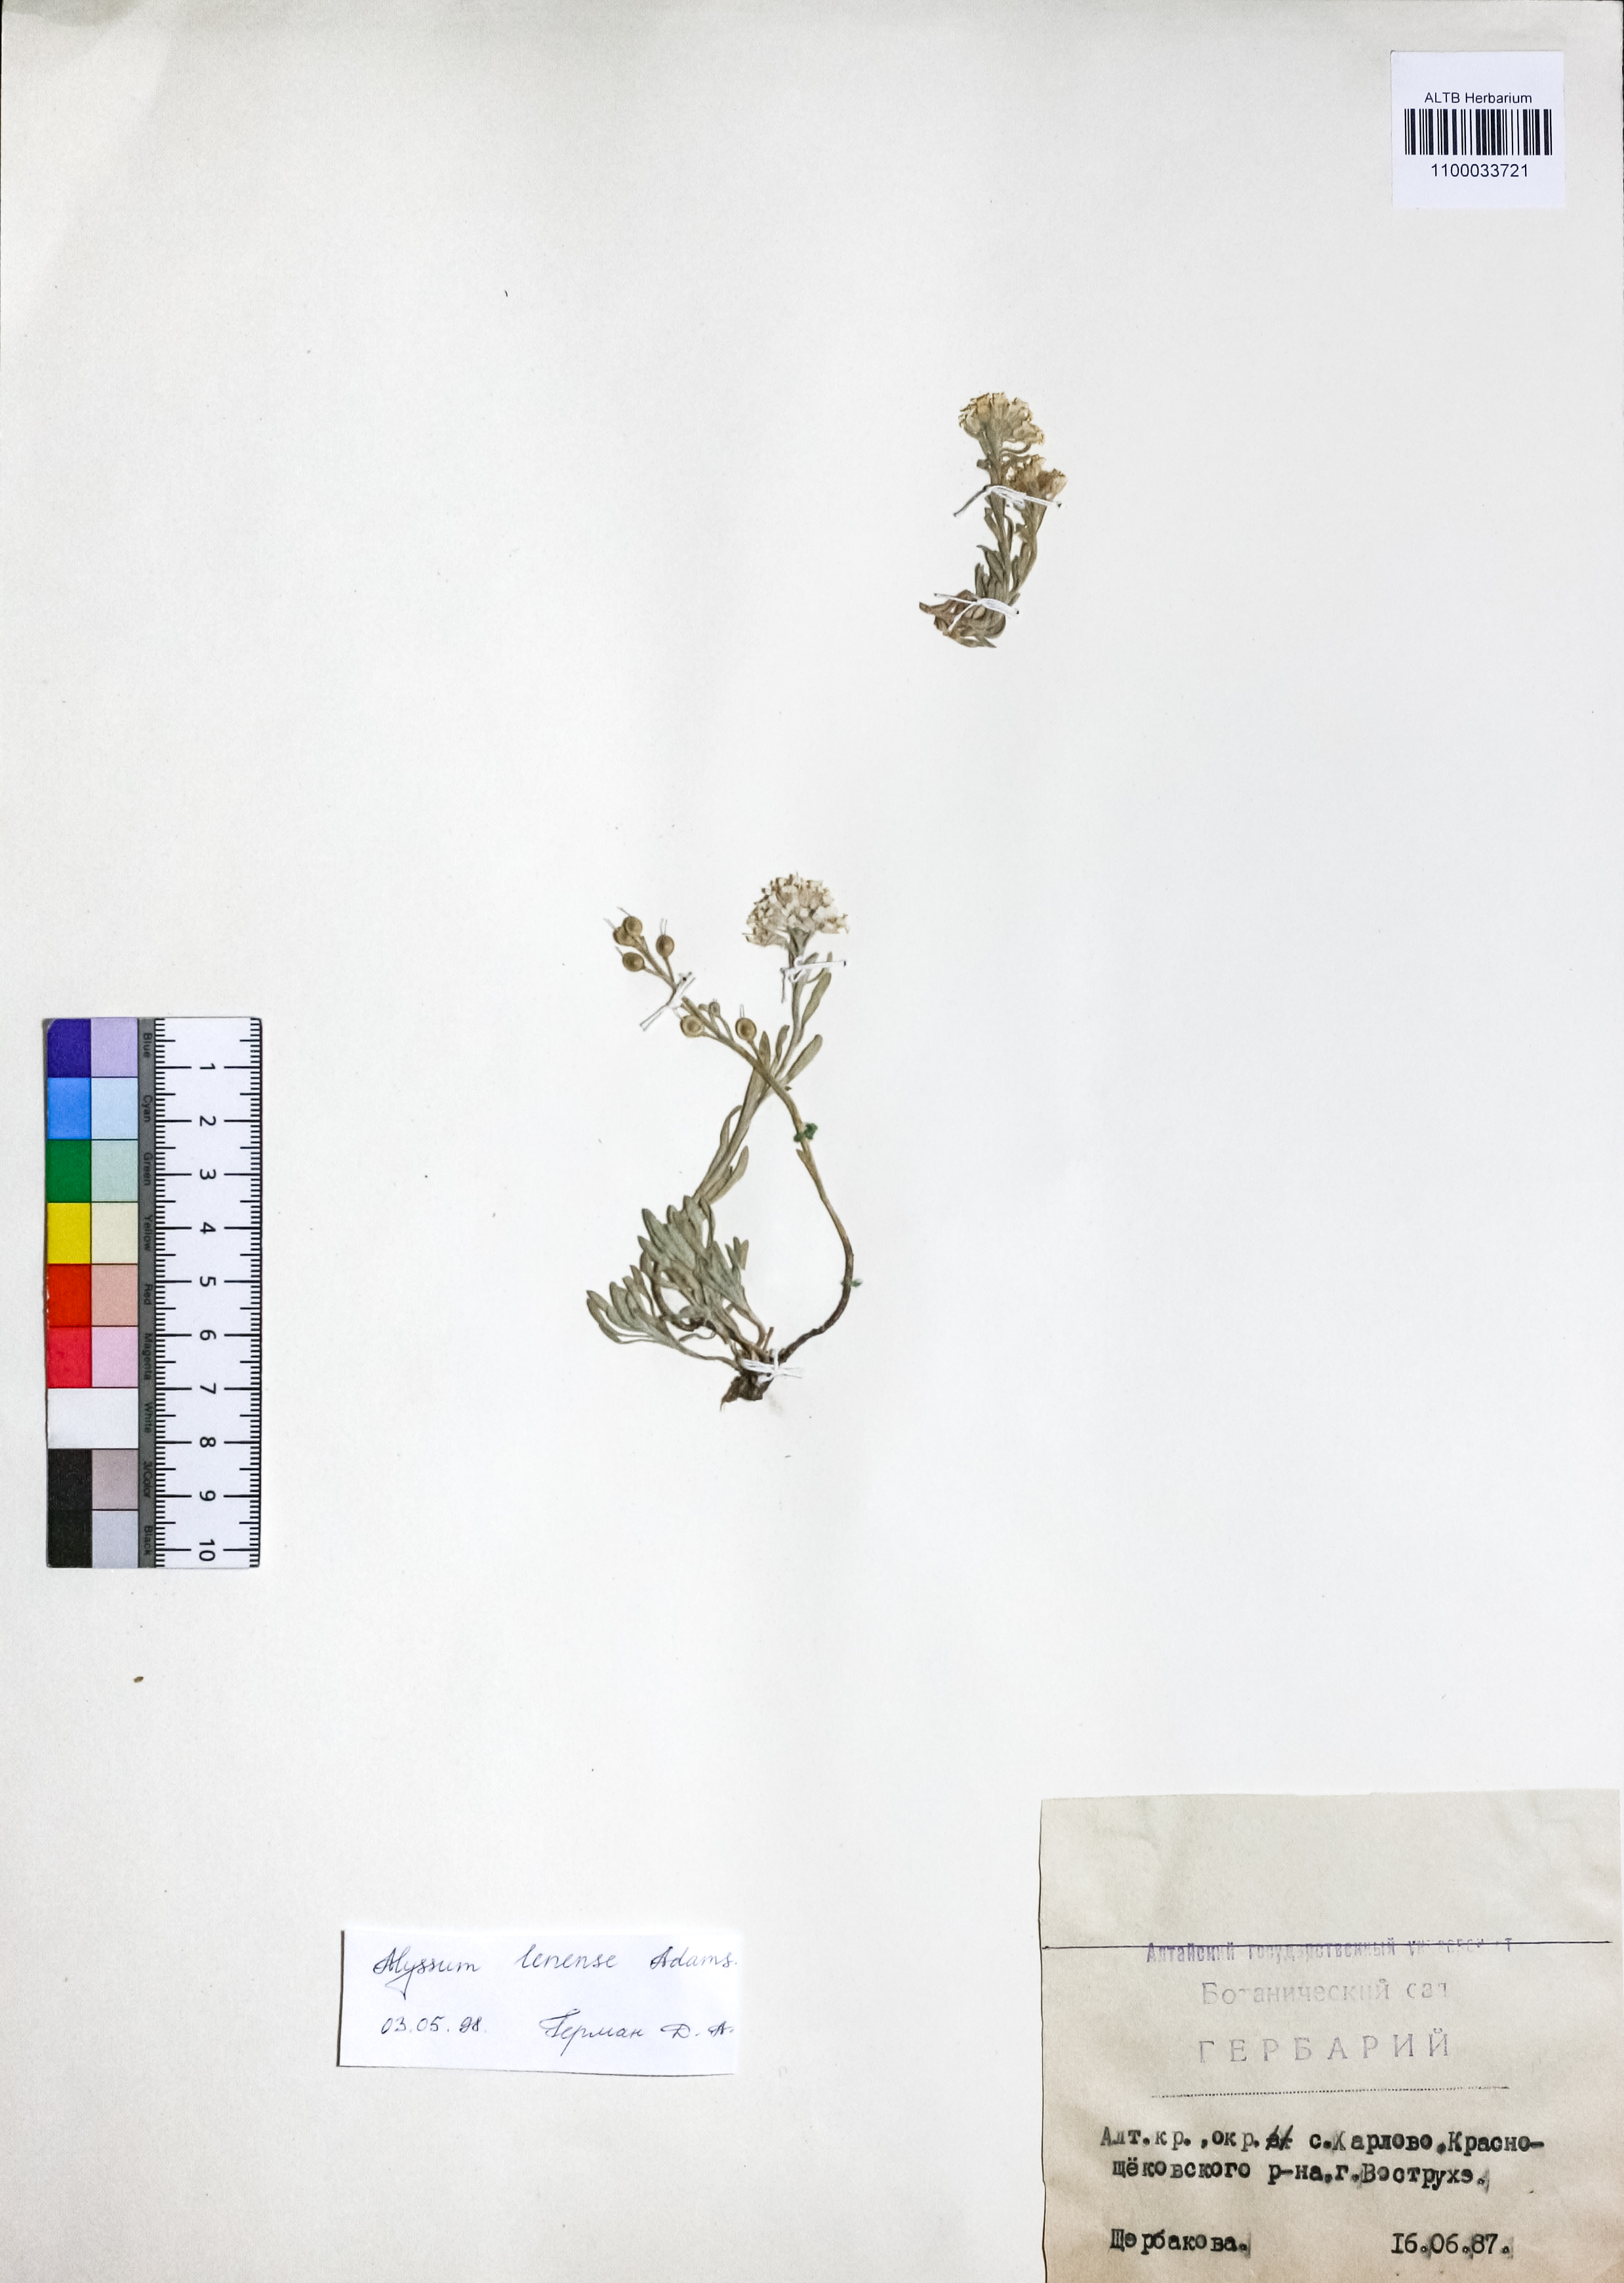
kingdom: Plantae
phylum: Tracheophyta
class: Magnoliopsida
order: Brassicales
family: Brassicaceae
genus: Alyssum
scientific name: Alyssum lenense
